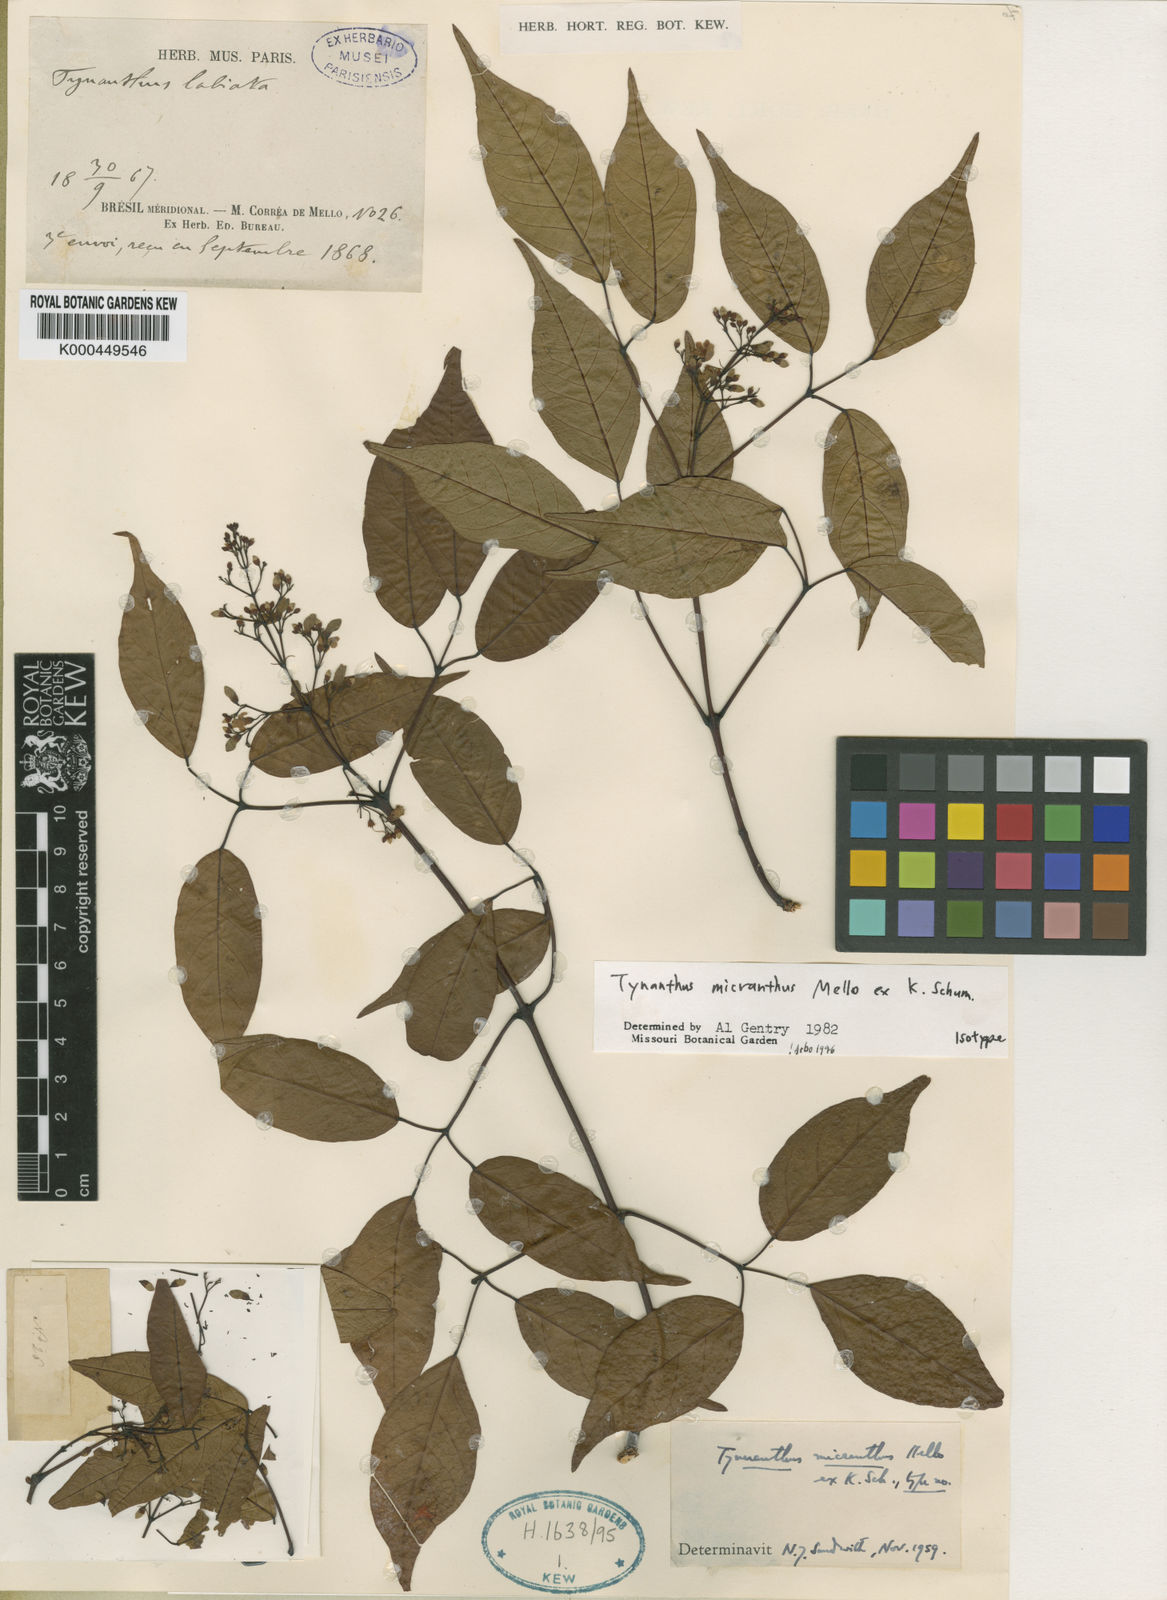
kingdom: Plantae
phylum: Tracheophyta
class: Magnoliopsida
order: Lamiales
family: Bignoniaceae
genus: Tynanthus
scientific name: Tynanthus
